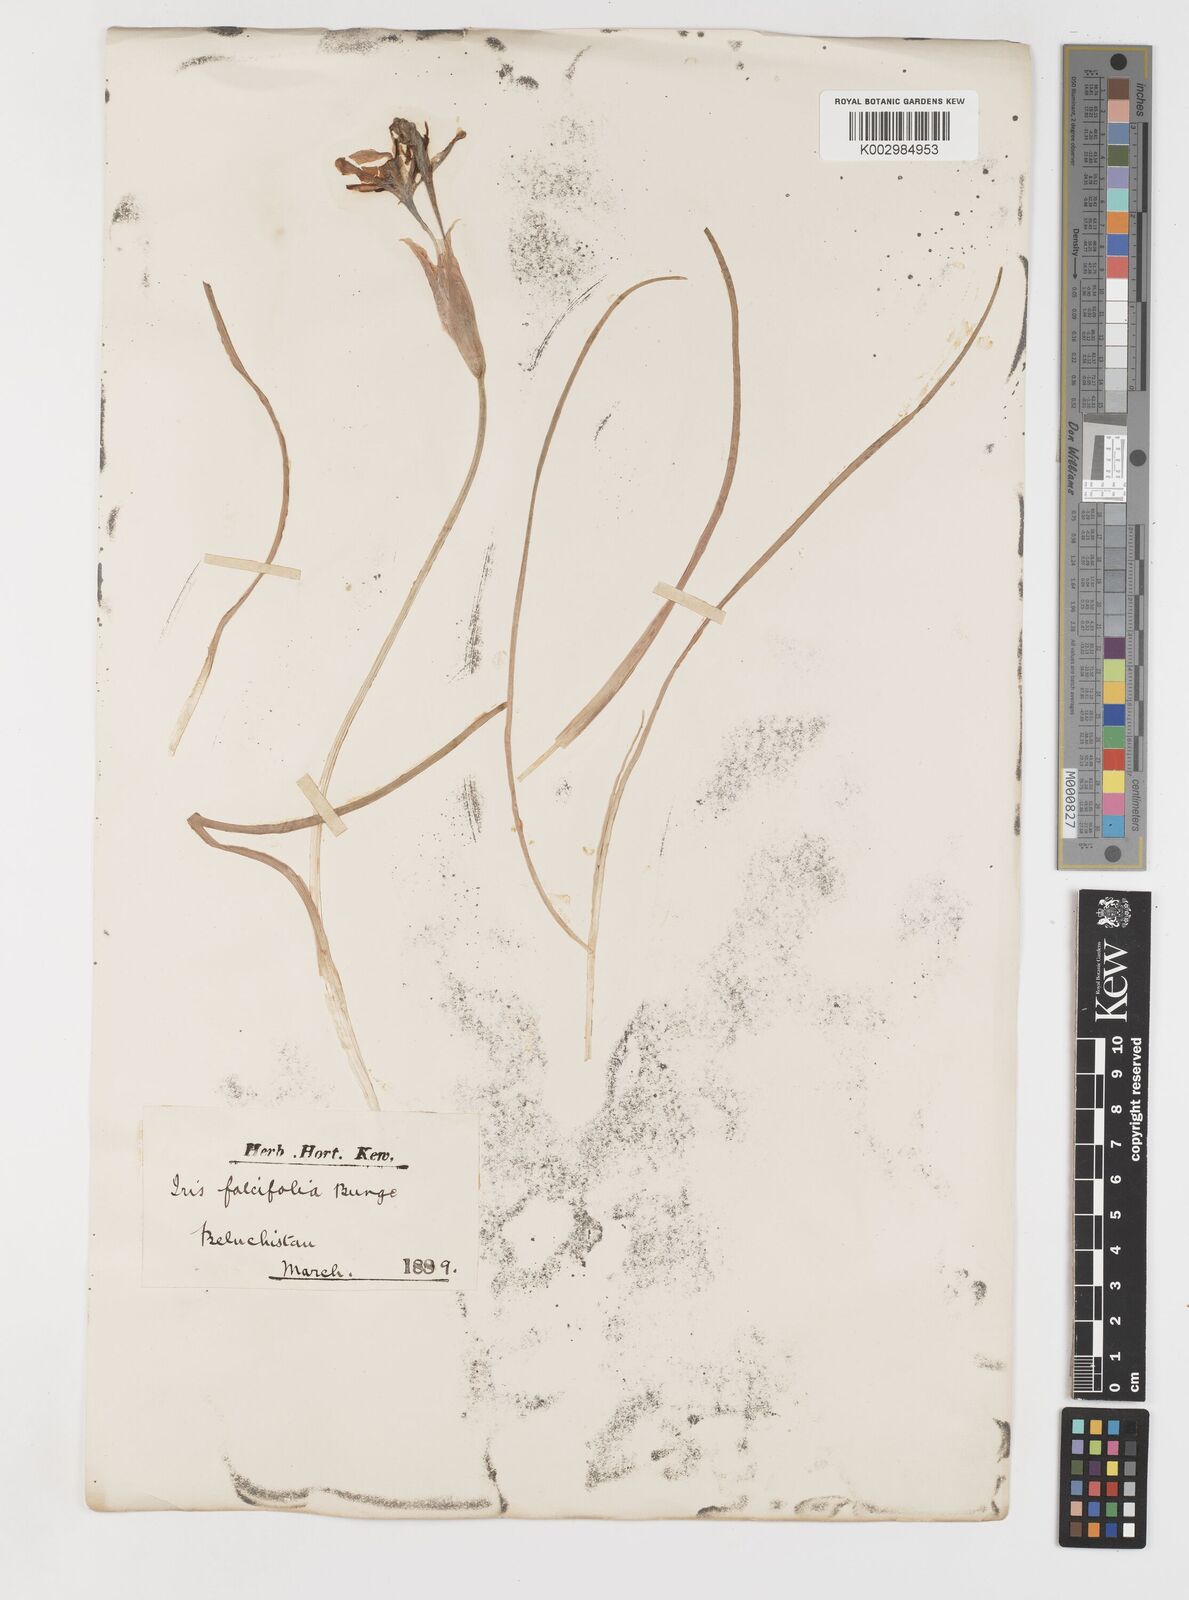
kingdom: Plantae
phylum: Tracheophyta
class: Liliopsida
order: Asparagales
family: Iridaceae
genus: Iris
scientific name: Iris longiscapa
